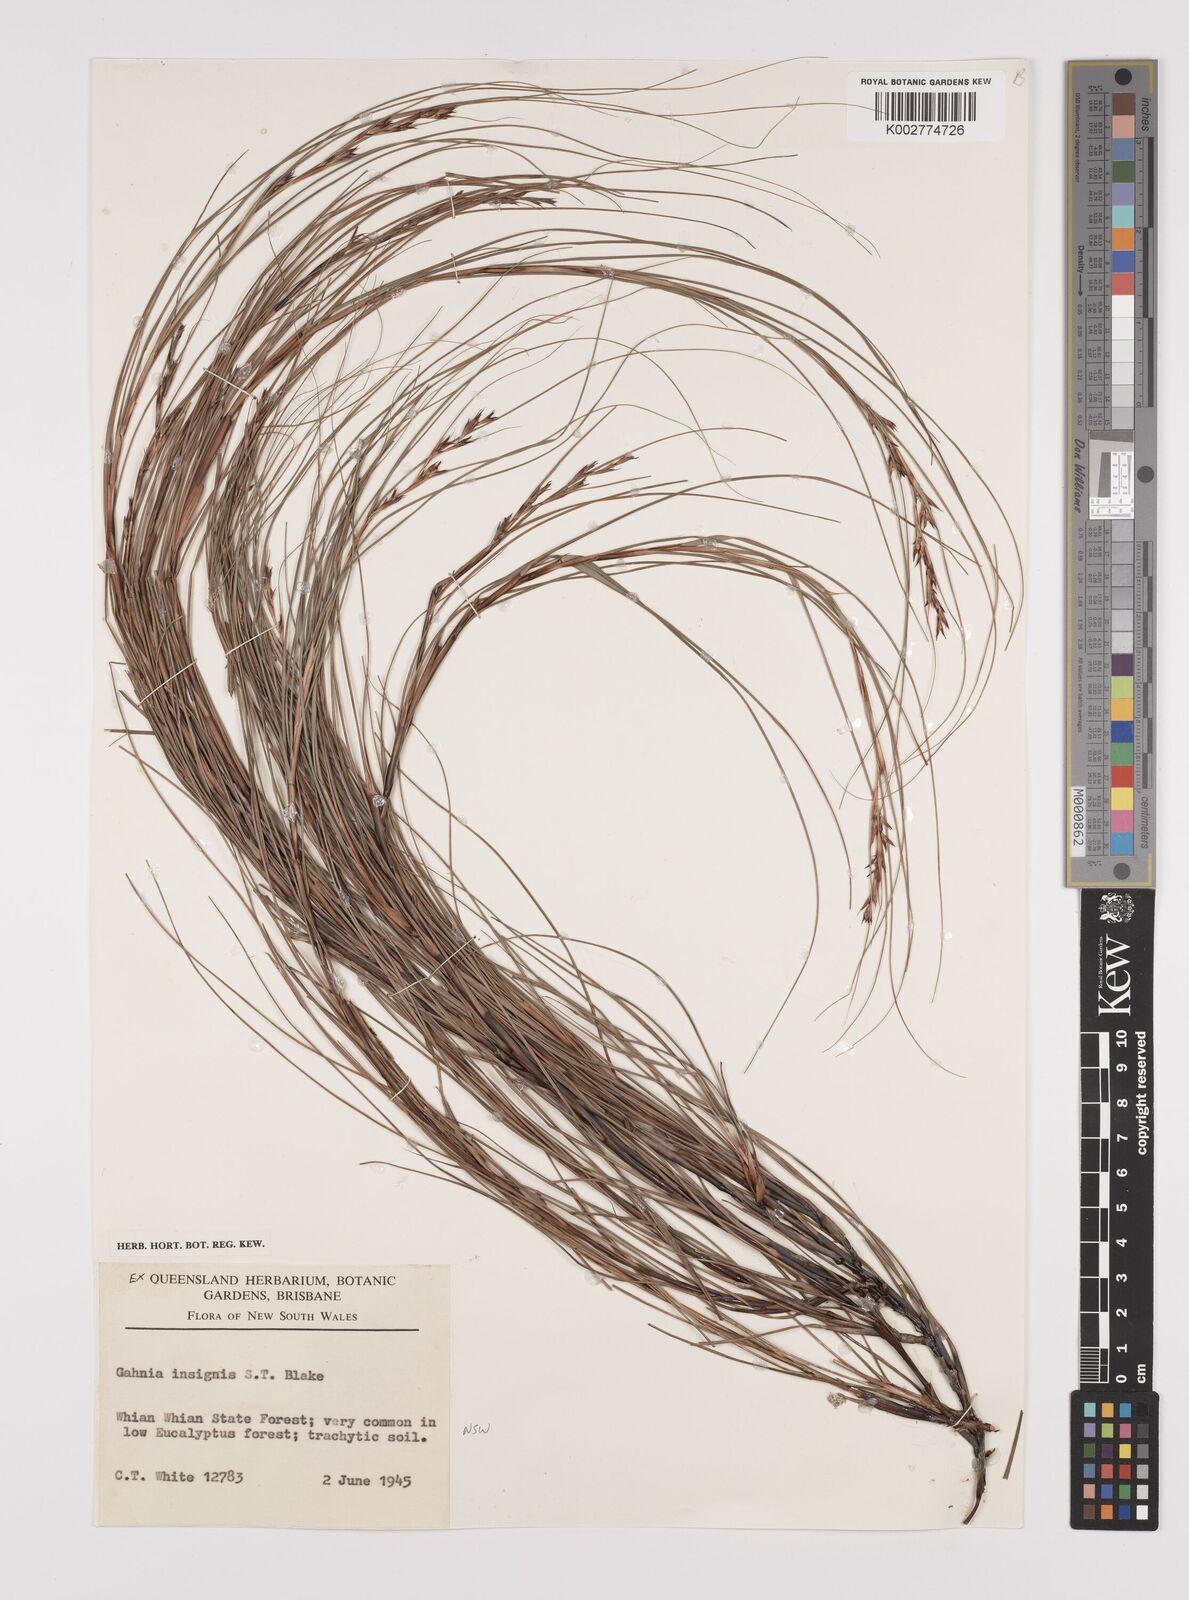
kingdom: Plantae
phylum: Tracheophyta
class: Liliopsida
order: Poales
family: Cyperaceae
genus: Gahnia
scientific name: Gahnia insignis
